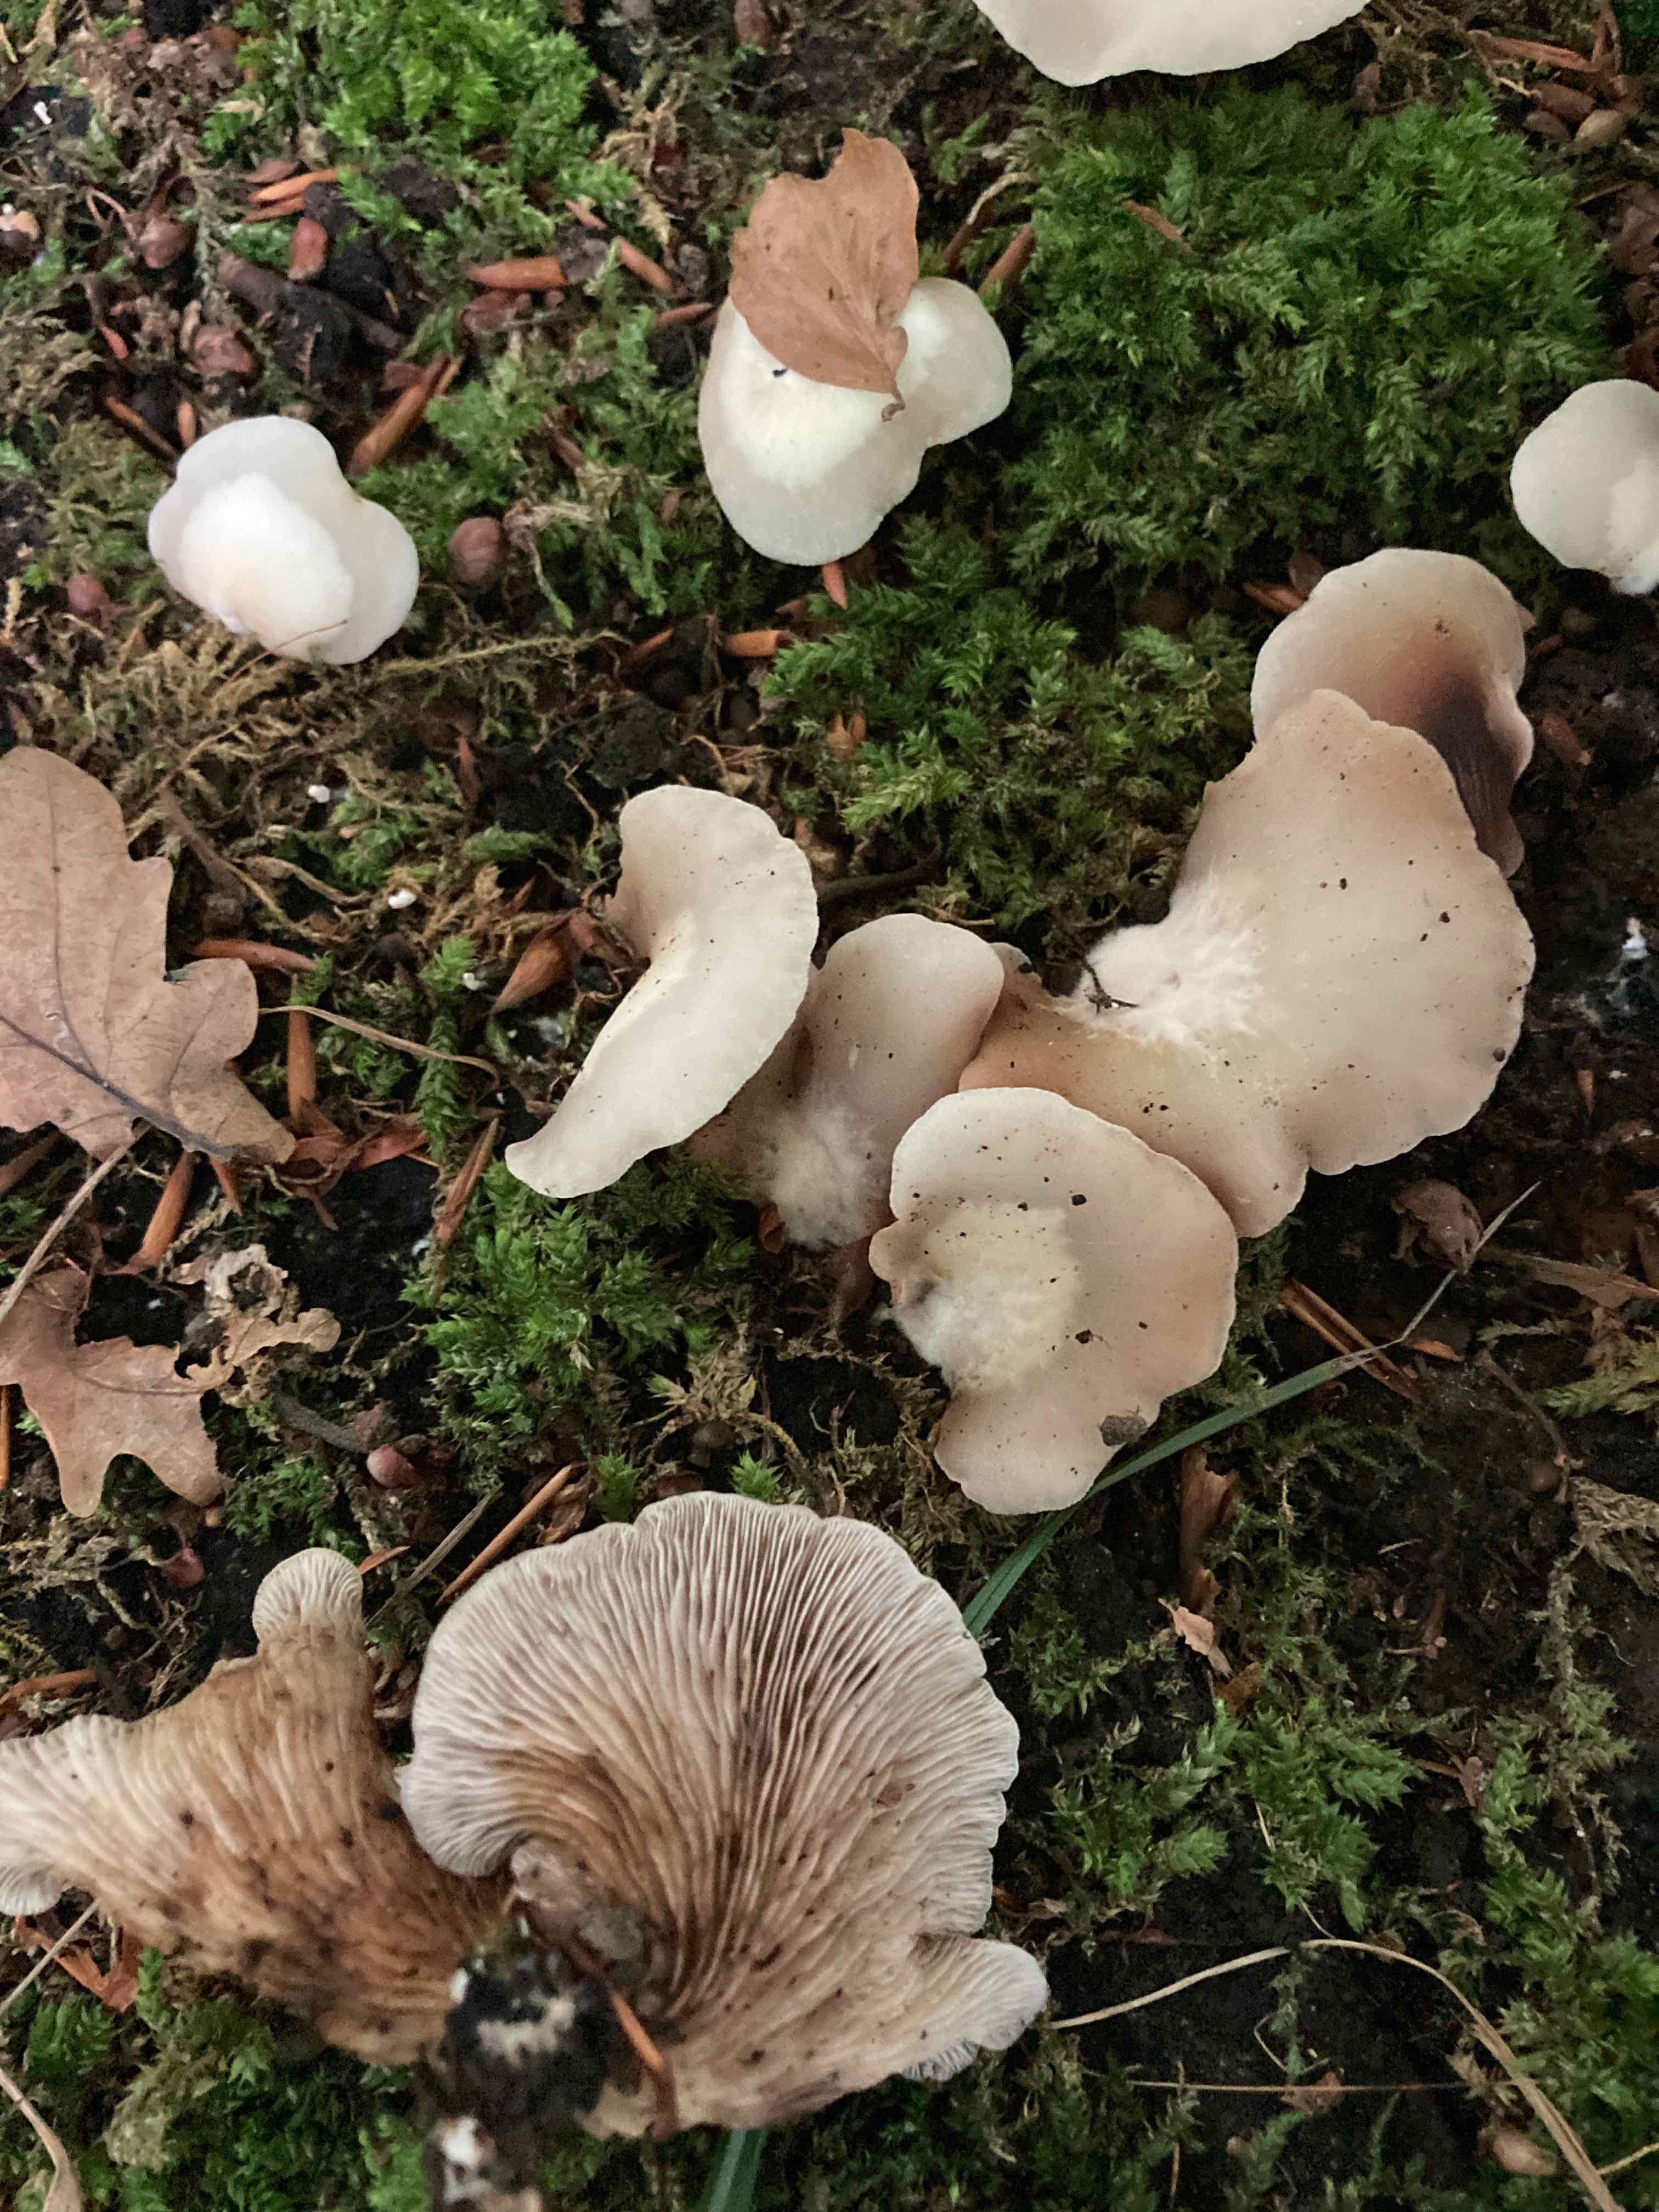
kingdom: Fungi
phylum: Basidiomycota
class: Agaricomycetes
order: Agaricales
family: Crepidotaceae
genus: Crepidotus
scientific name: Crepidotus mollis
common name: blød muslingesvamp
